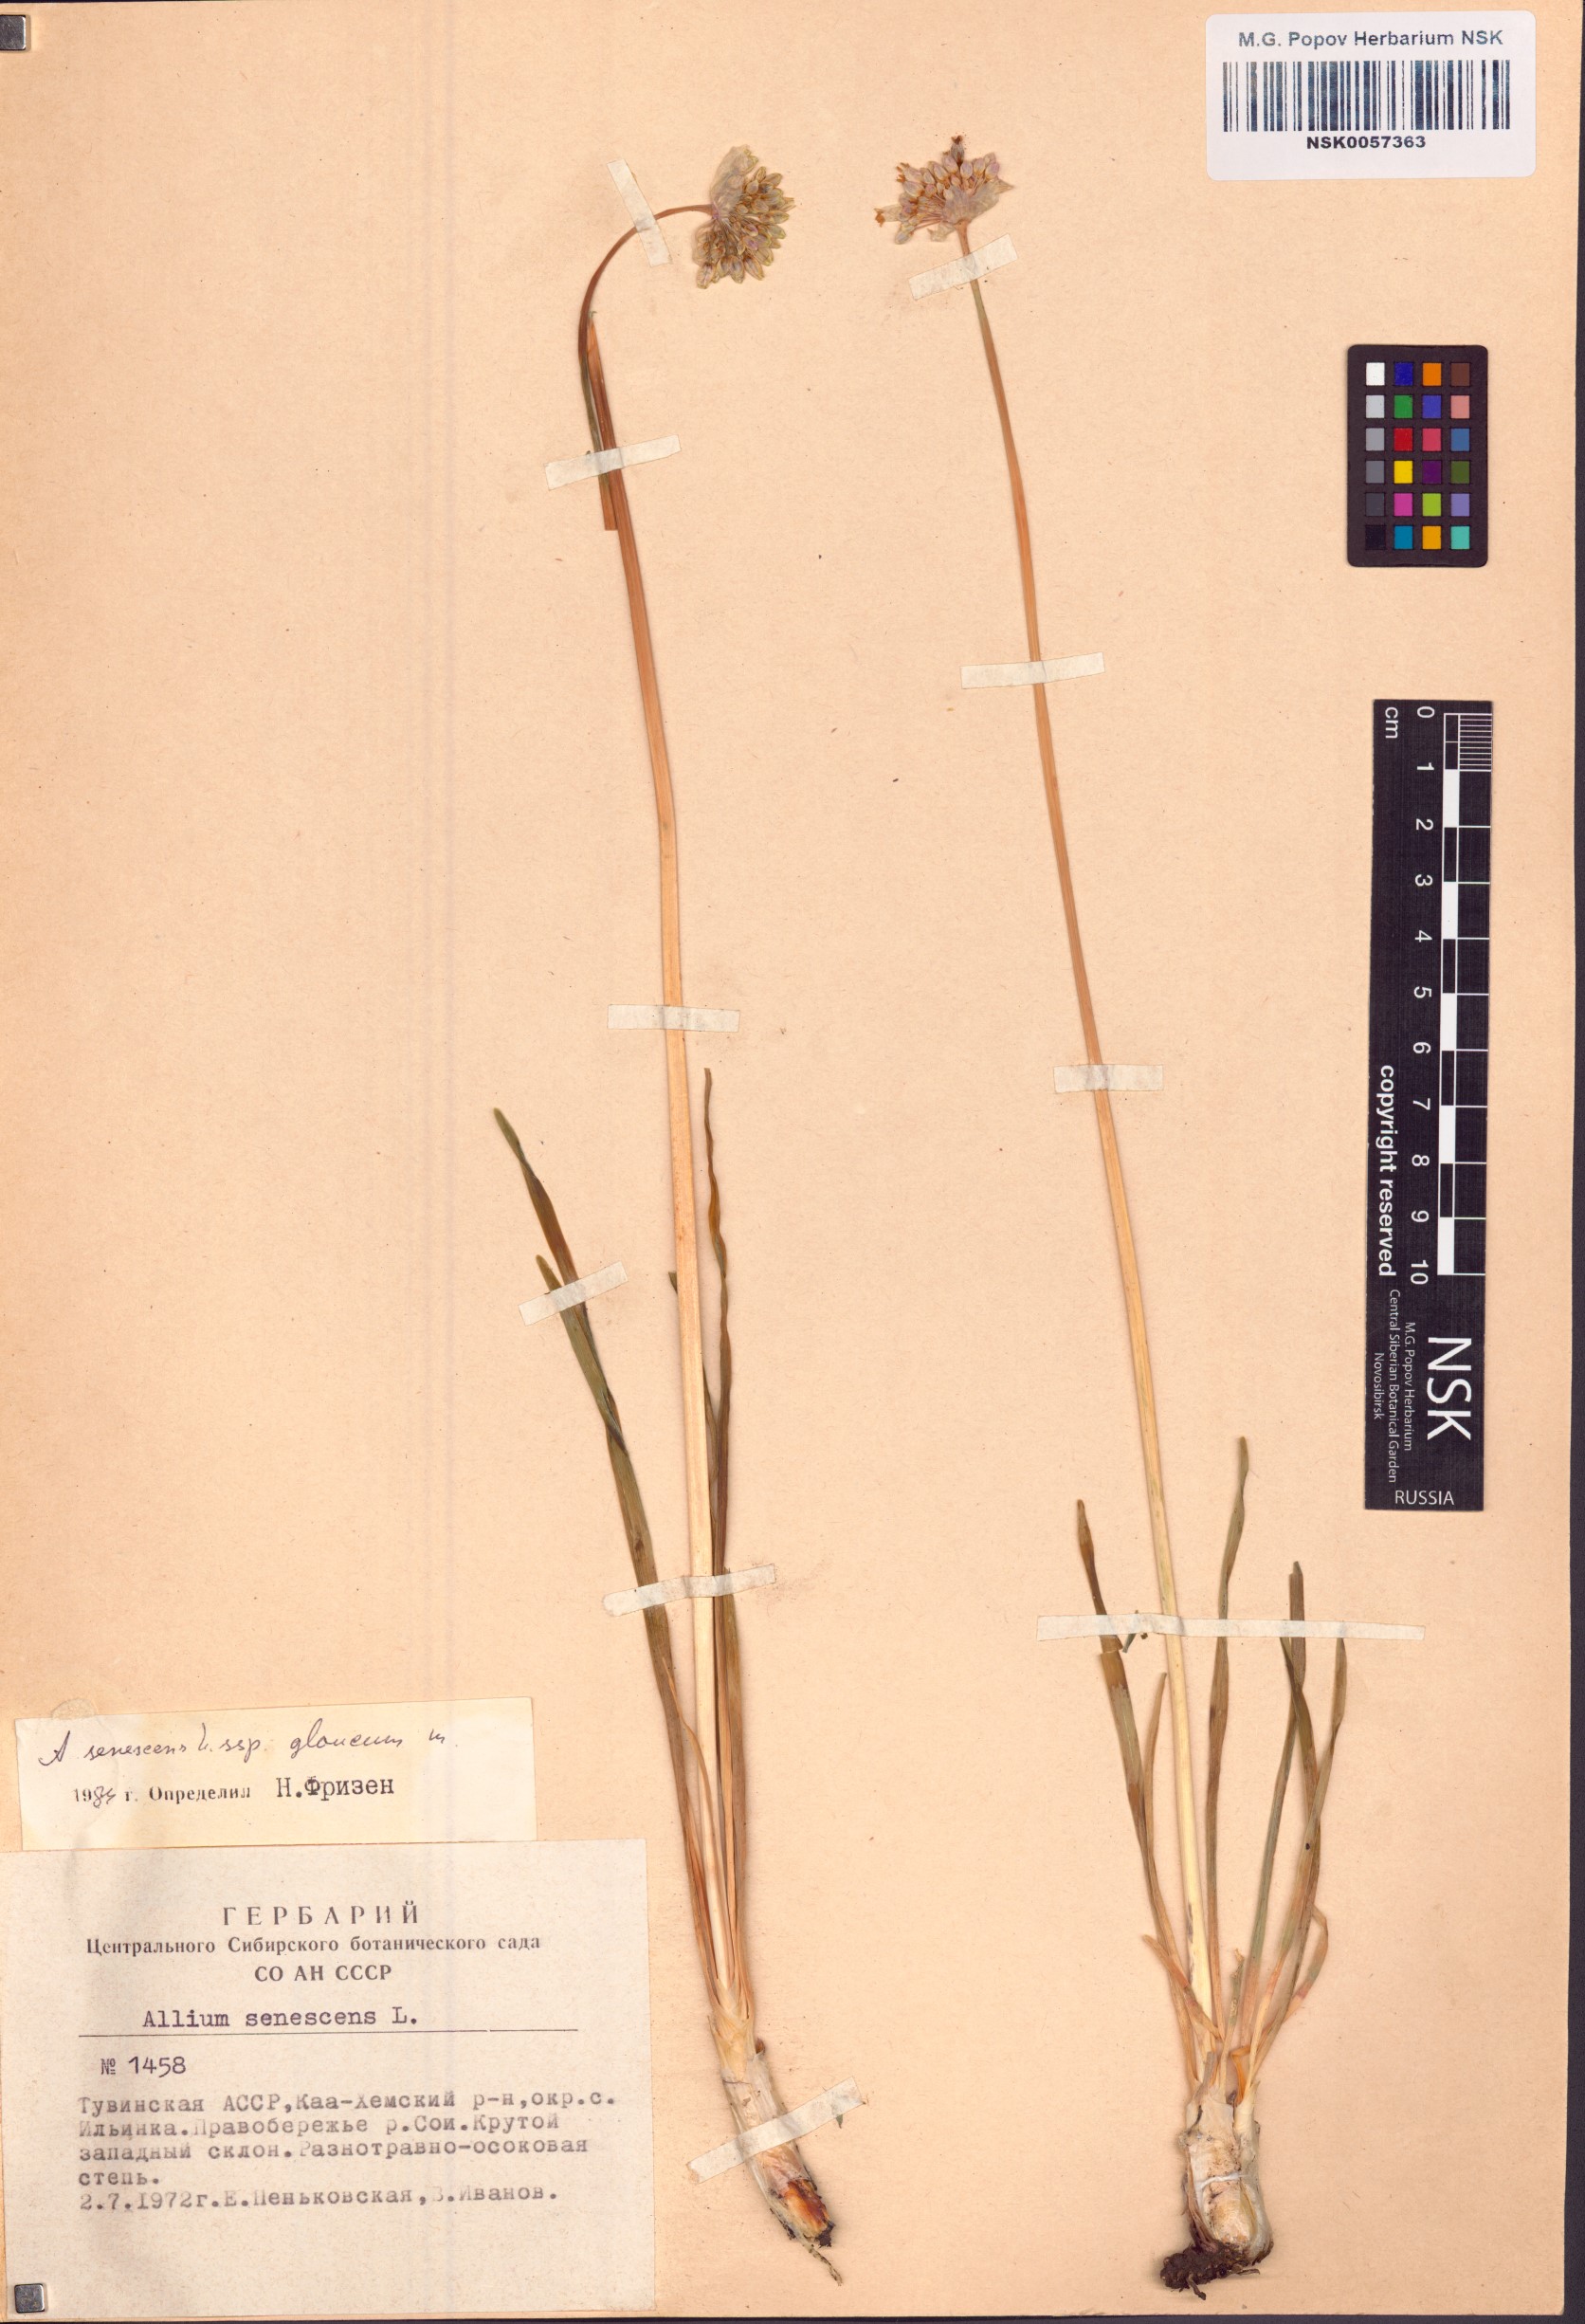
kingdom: Plantae
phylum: Tracheophyta
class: Liliopsida
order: Asparagales
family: Amaryllidaceae
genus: Allium
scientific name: Allium senescens
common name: German garlic
